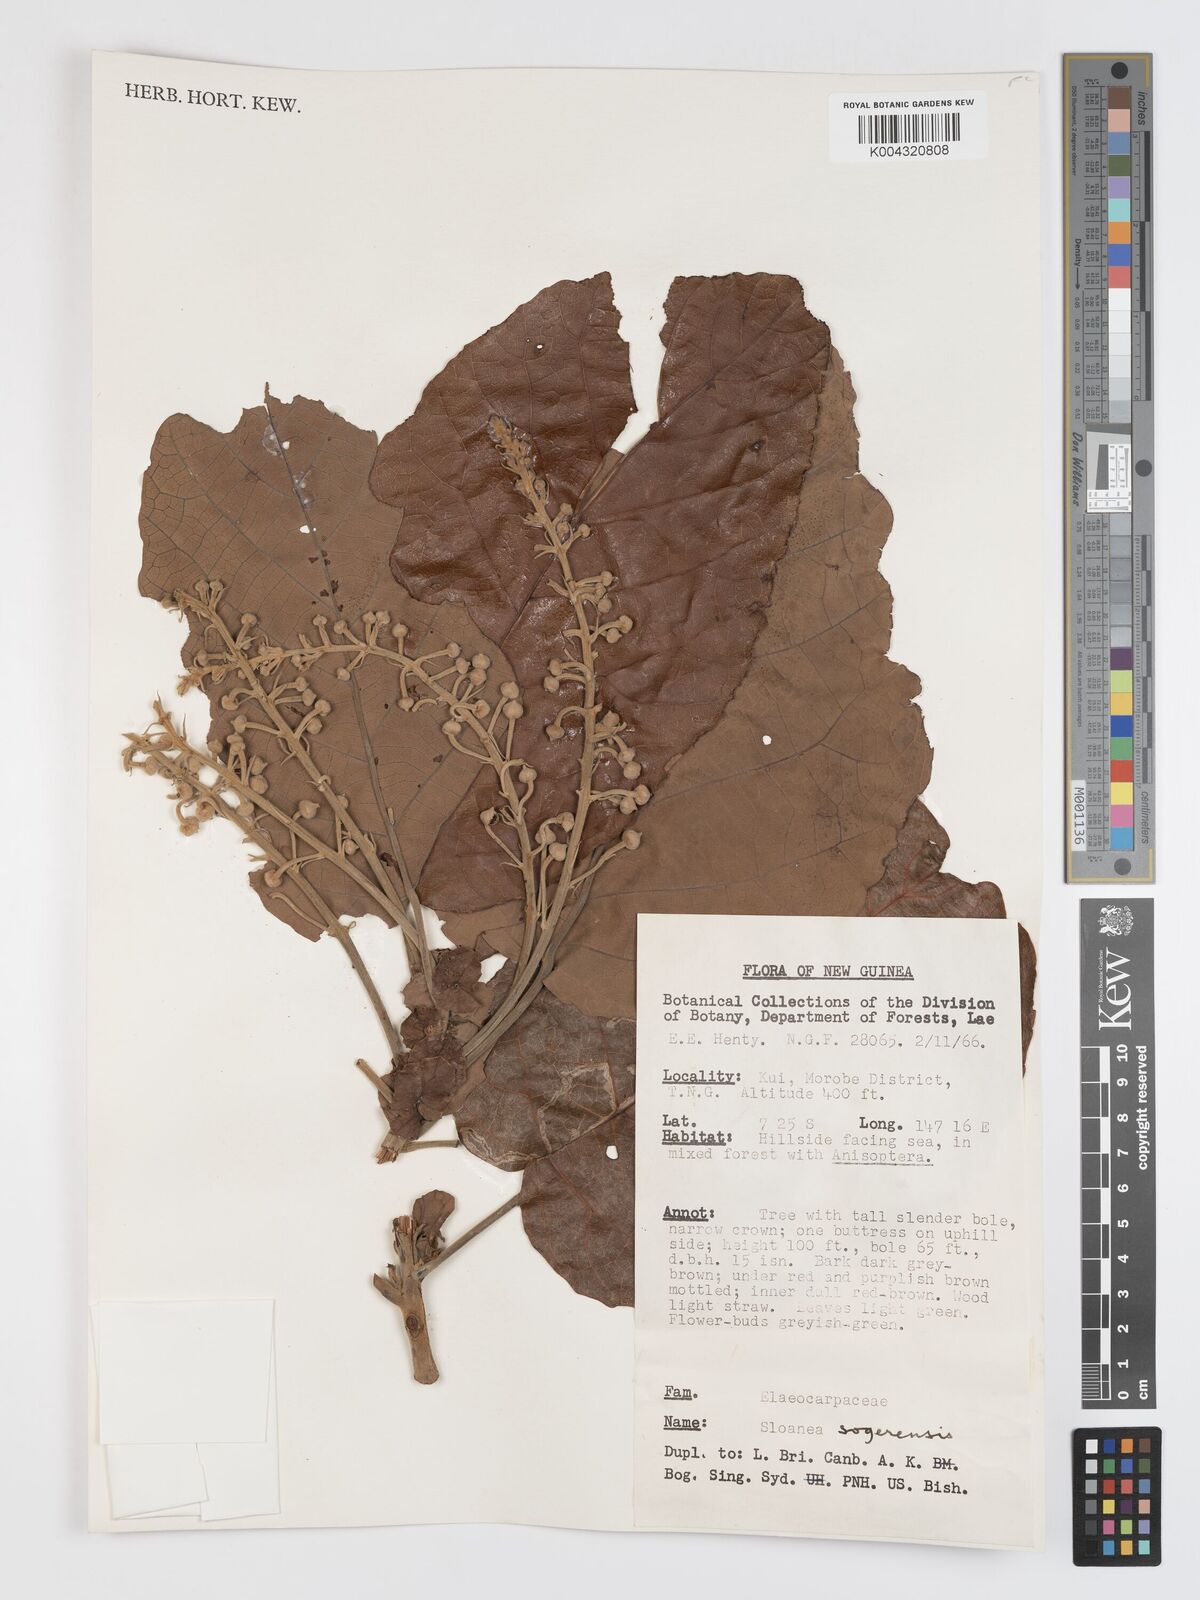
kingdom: Plantae
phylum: Tracheophyta
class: Magnoliopsida
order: Oxalidales
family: Elaeocarpaceae
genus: Sloanea
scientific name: Sloanea sogerensis
